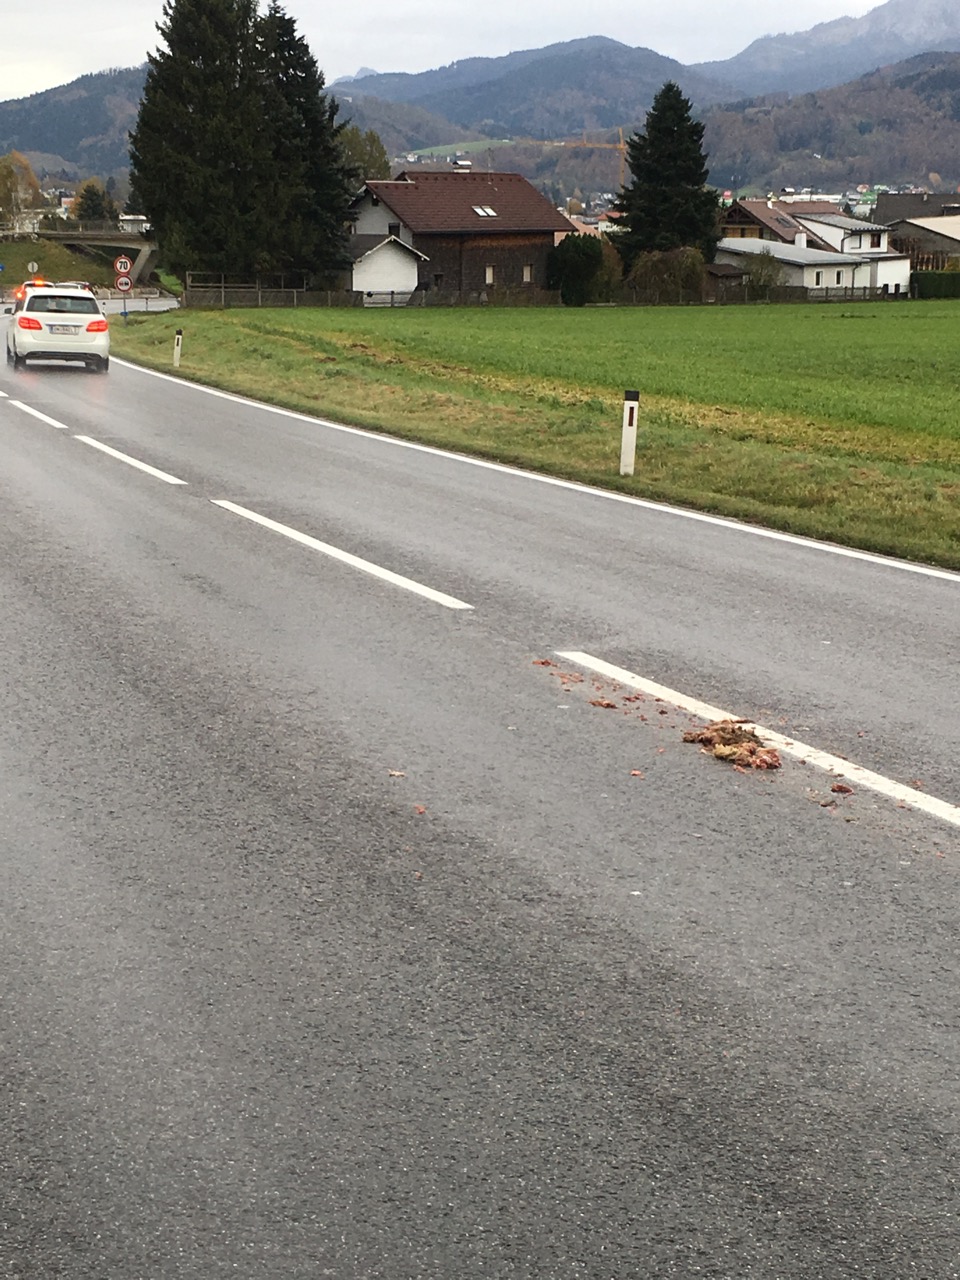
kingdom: Animalia
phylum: Chordata
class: Mammalia
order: Lagomorpha
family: Leporidae
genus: Lepus
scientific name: Lepus europaeus
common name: European hare
